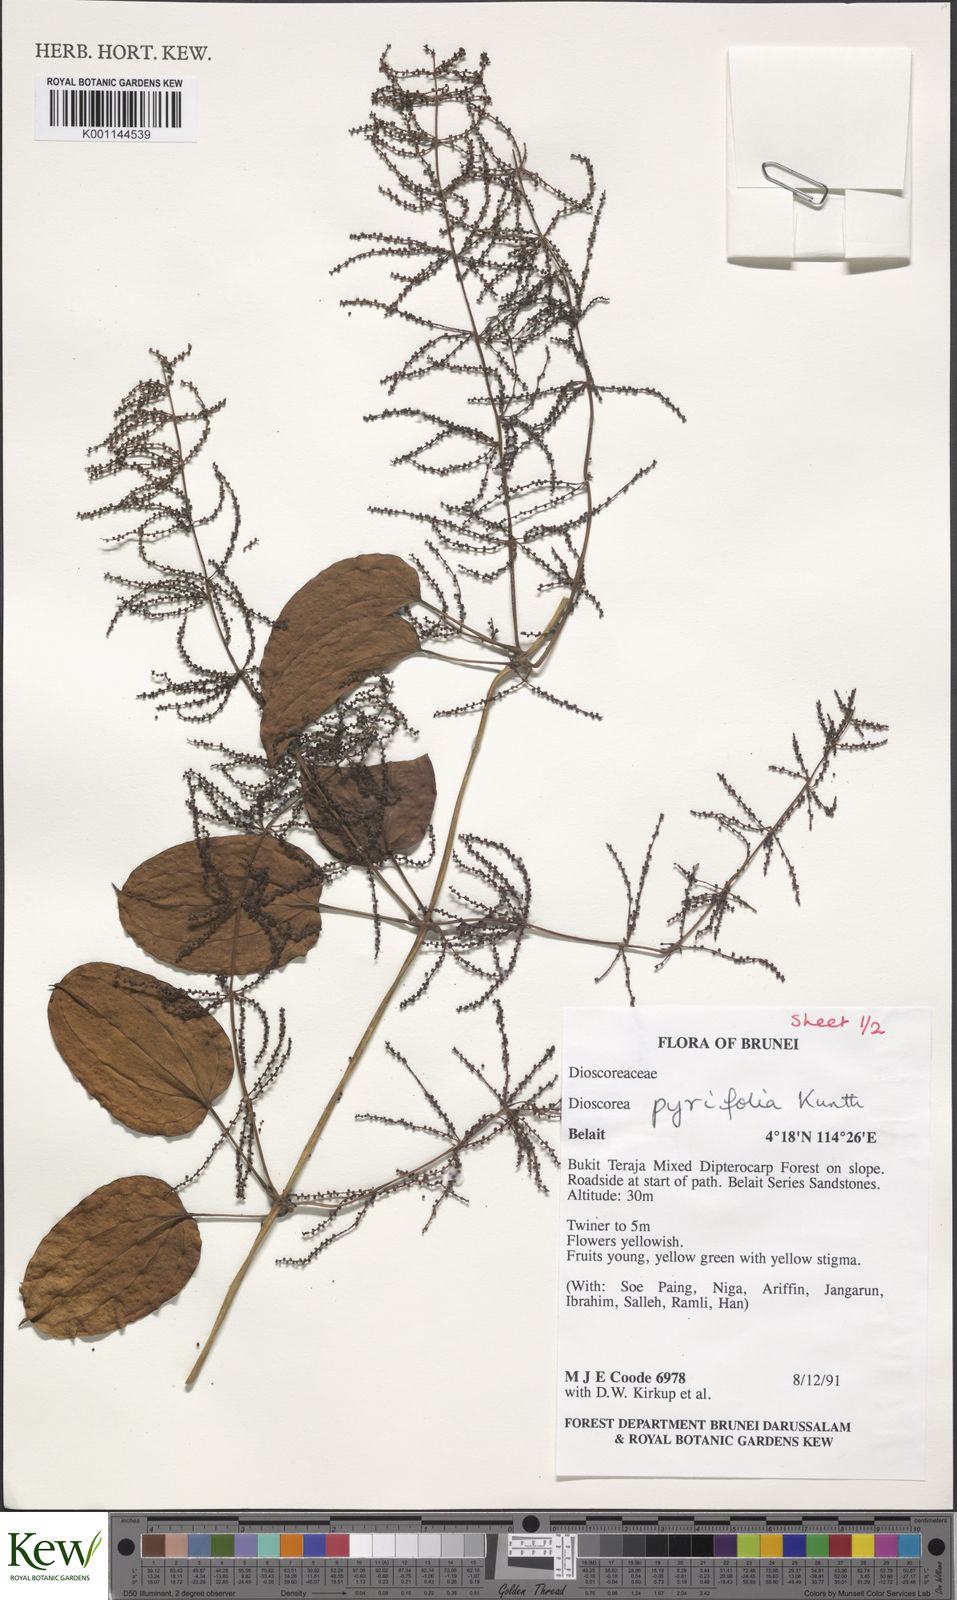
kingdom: Plantae
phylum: Tracheophyta
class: Liliopsida
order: Dioscoreales
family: Dioscoreaceae
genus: Dioscorea
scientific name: Dioscorea pyrifolia
